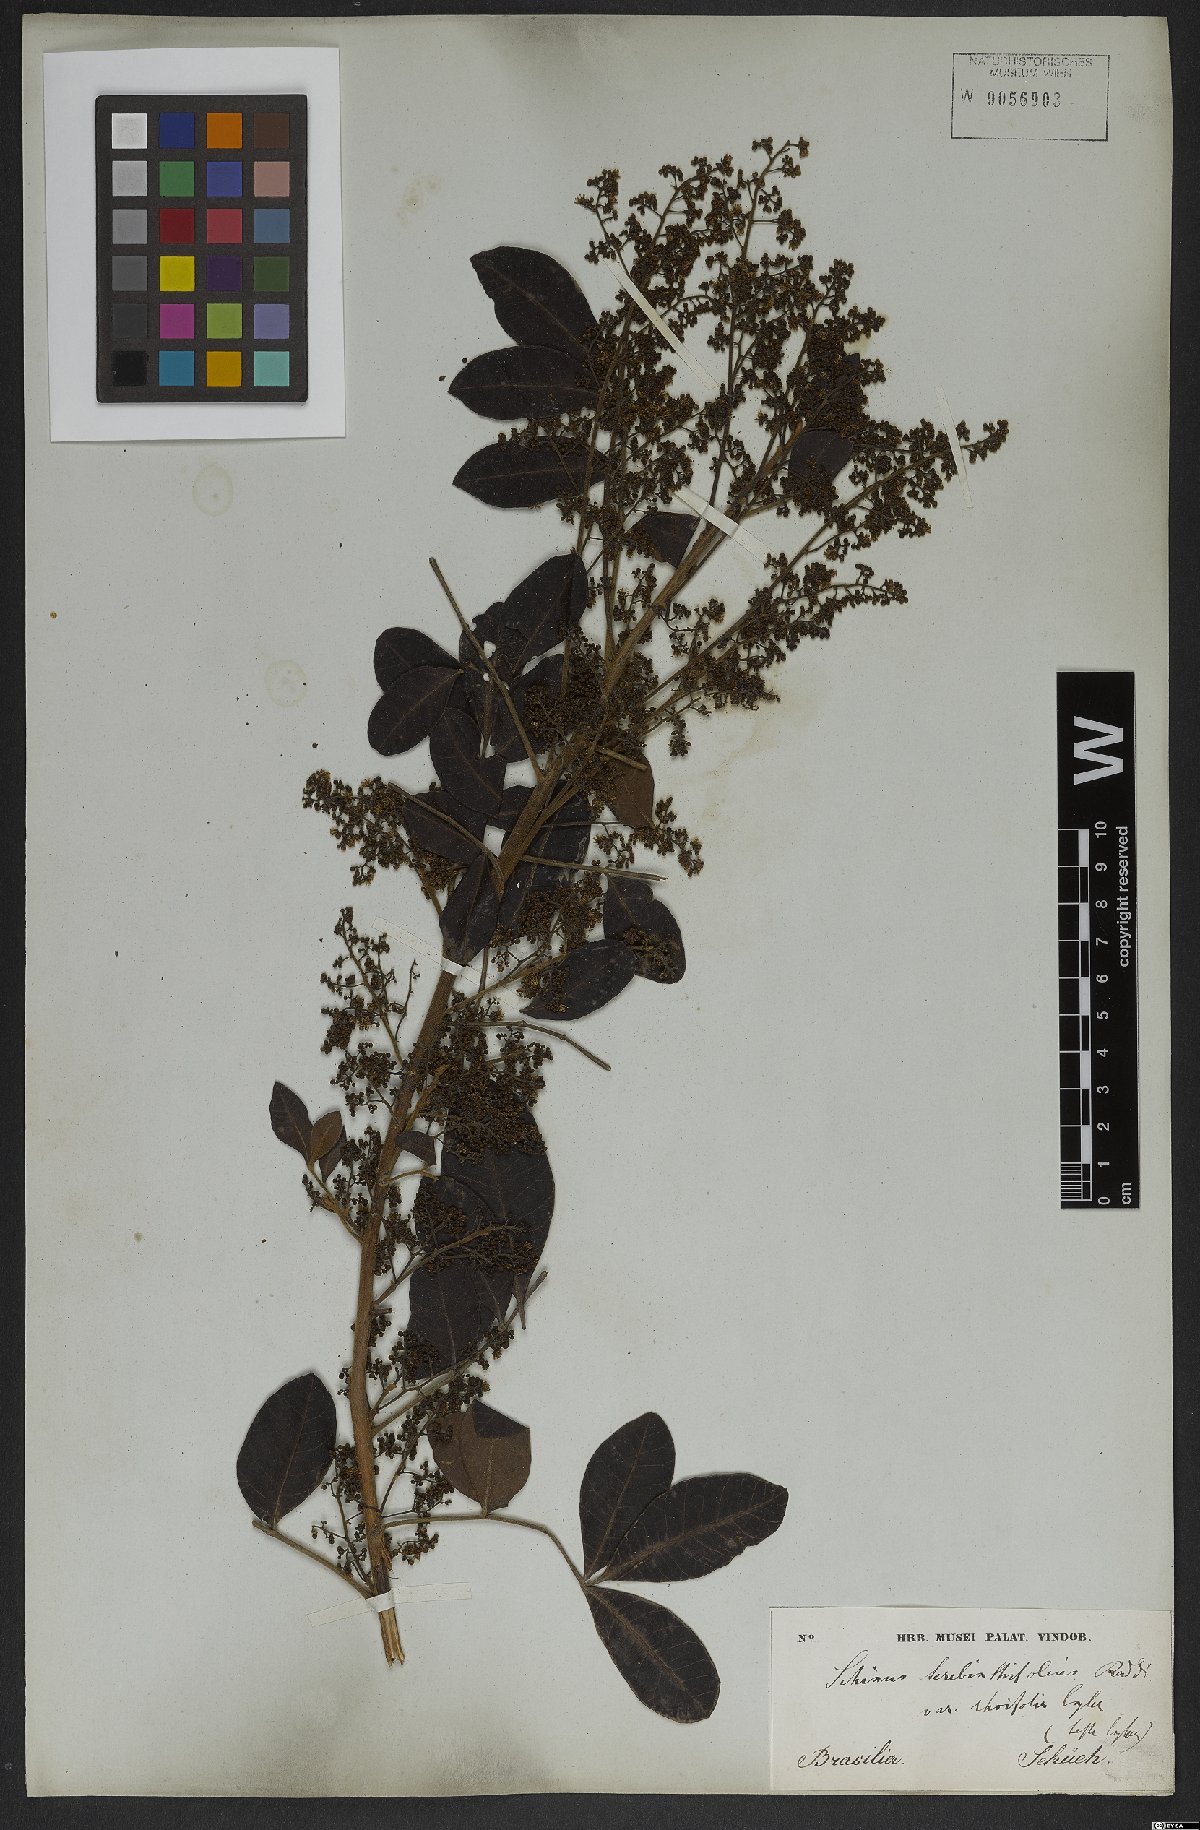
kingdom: Plantae
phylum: Tracheophyta
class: Magnoliopsida
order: Sapindales
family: Anacardiaceae
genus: Schinus
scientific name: Schinus terebinthifolia
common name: Brazilian peppertree
